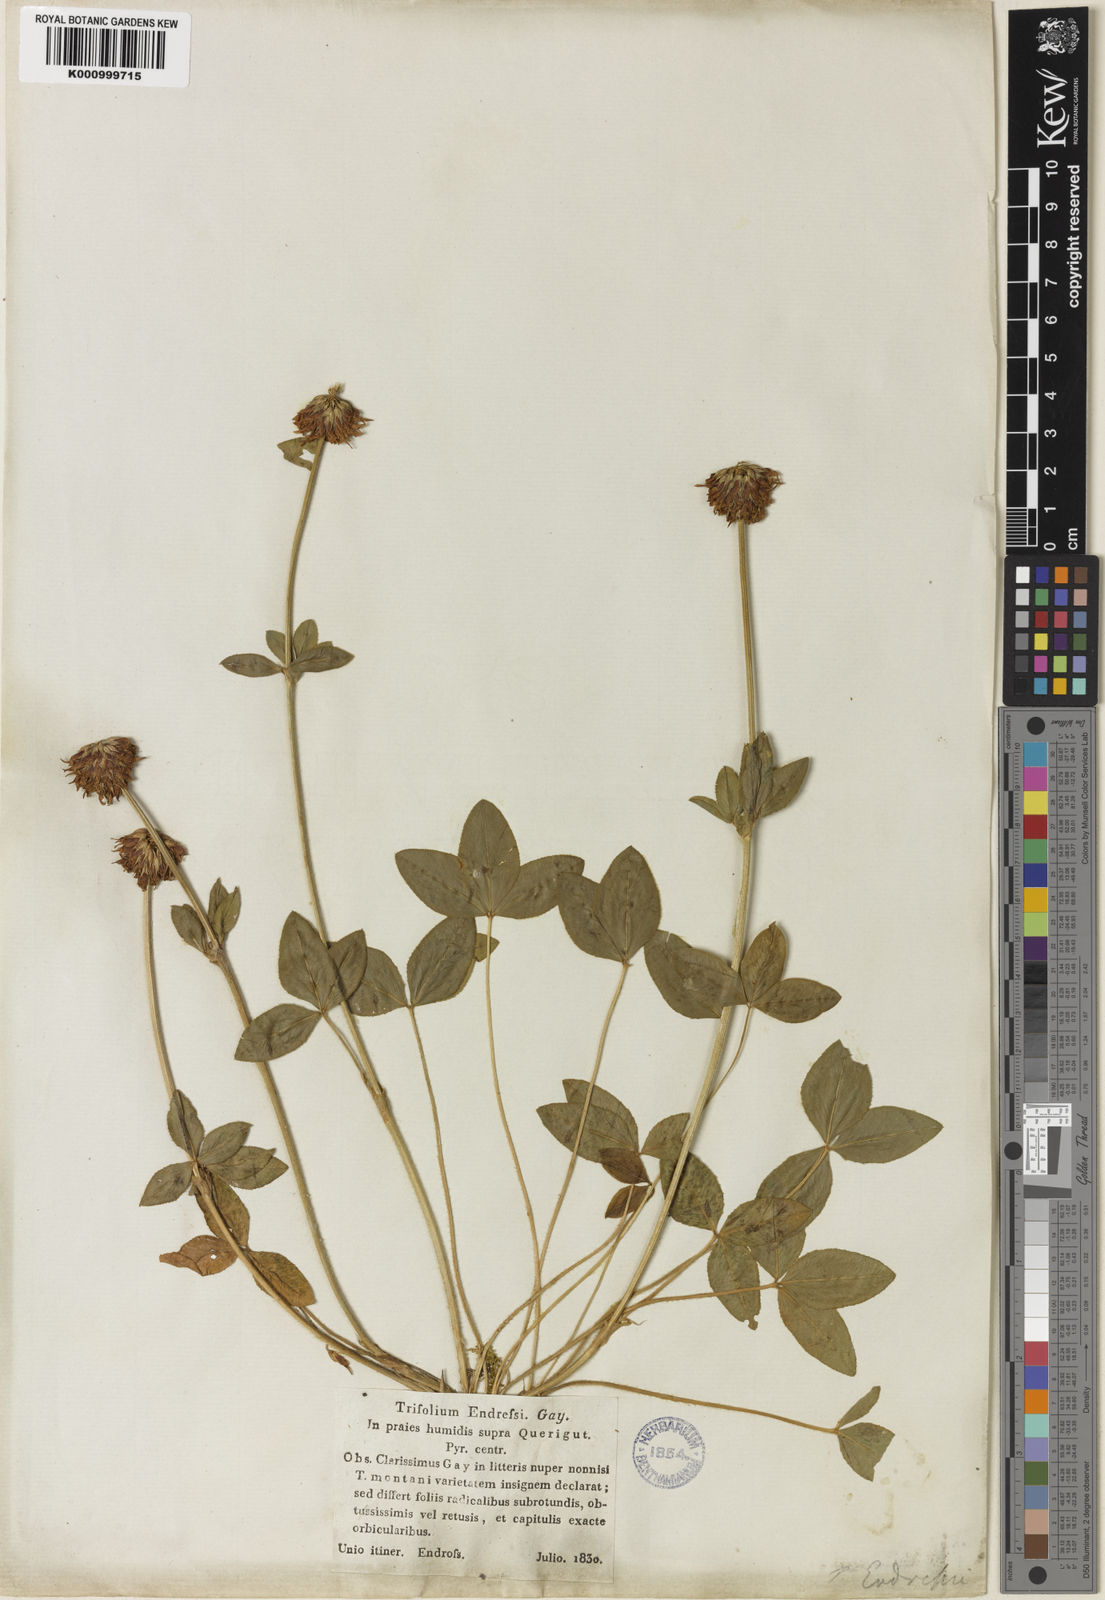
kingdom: Plantae
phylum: Tracheophyta
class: Magnoliopsida
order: Fabales
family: Fabaceae
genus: Trifolium
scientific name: Trifolium montanum
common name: Mountain clover
